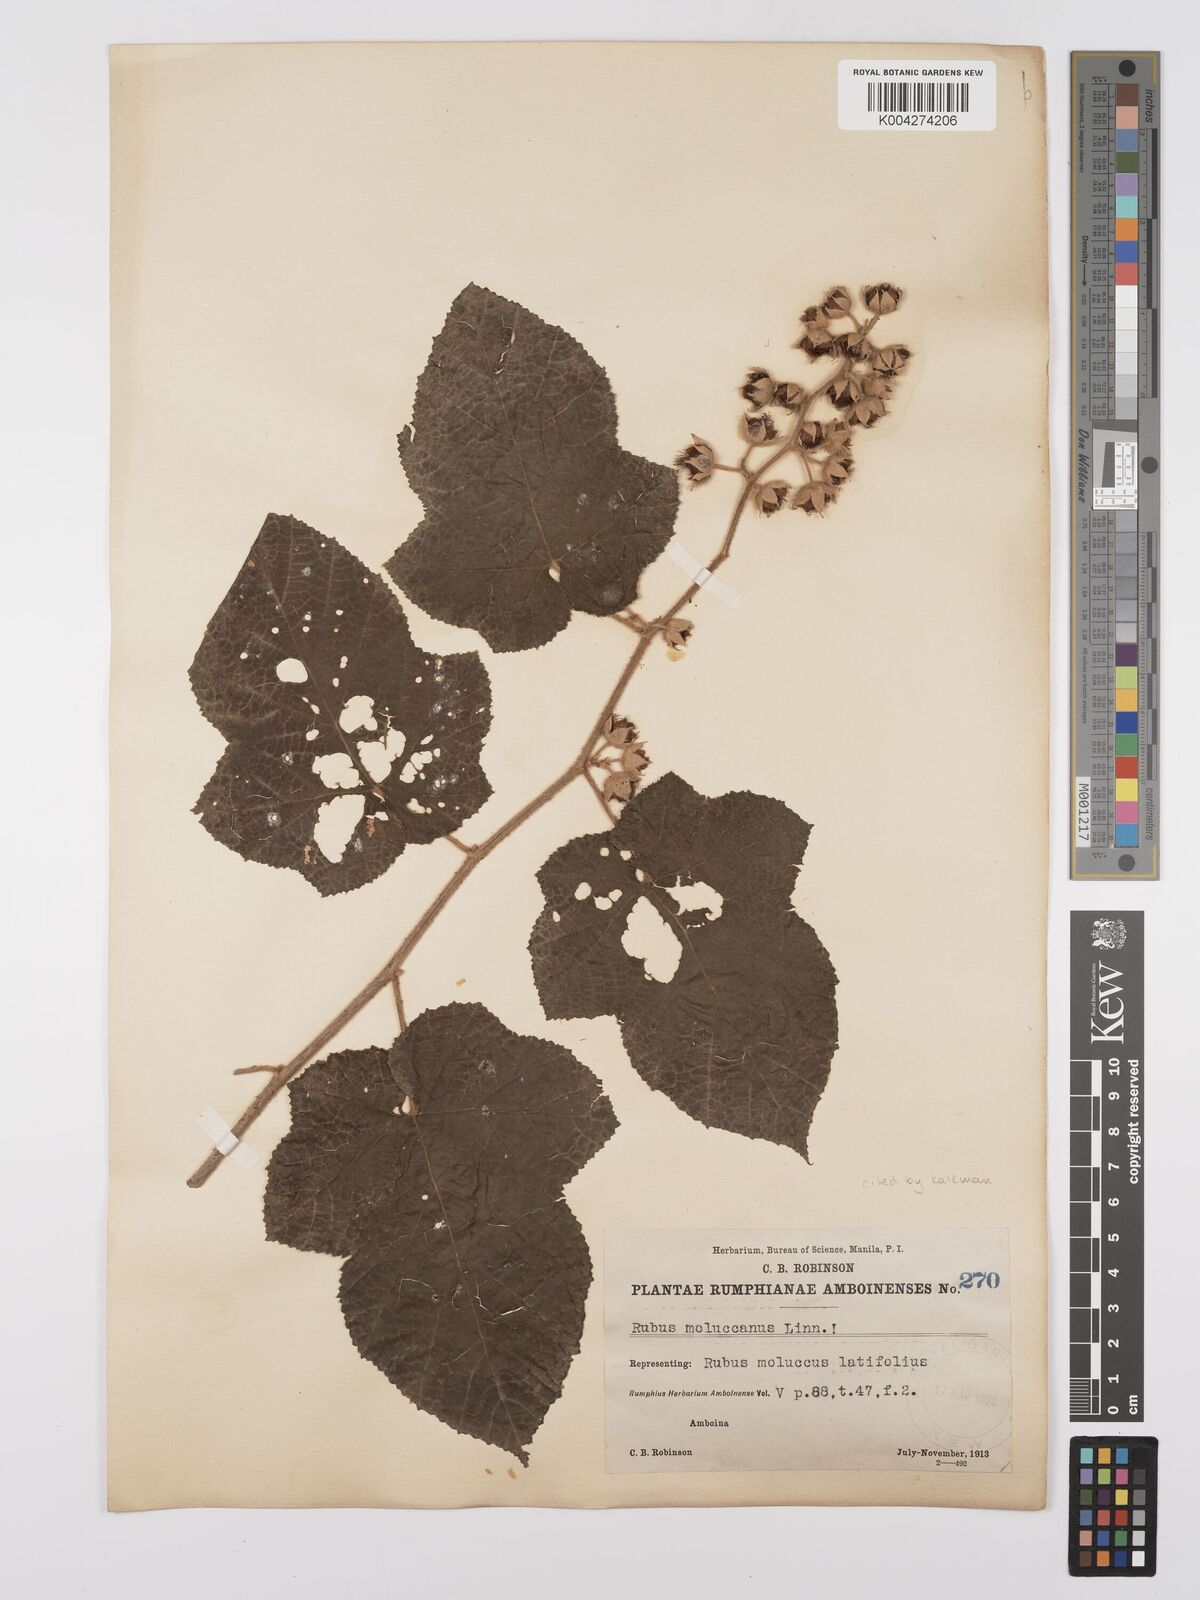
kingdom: Plantae
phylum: Tracheophyta
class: Magnoliopsida
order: Rosales
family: Rosaceae
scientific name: Rosaceae
